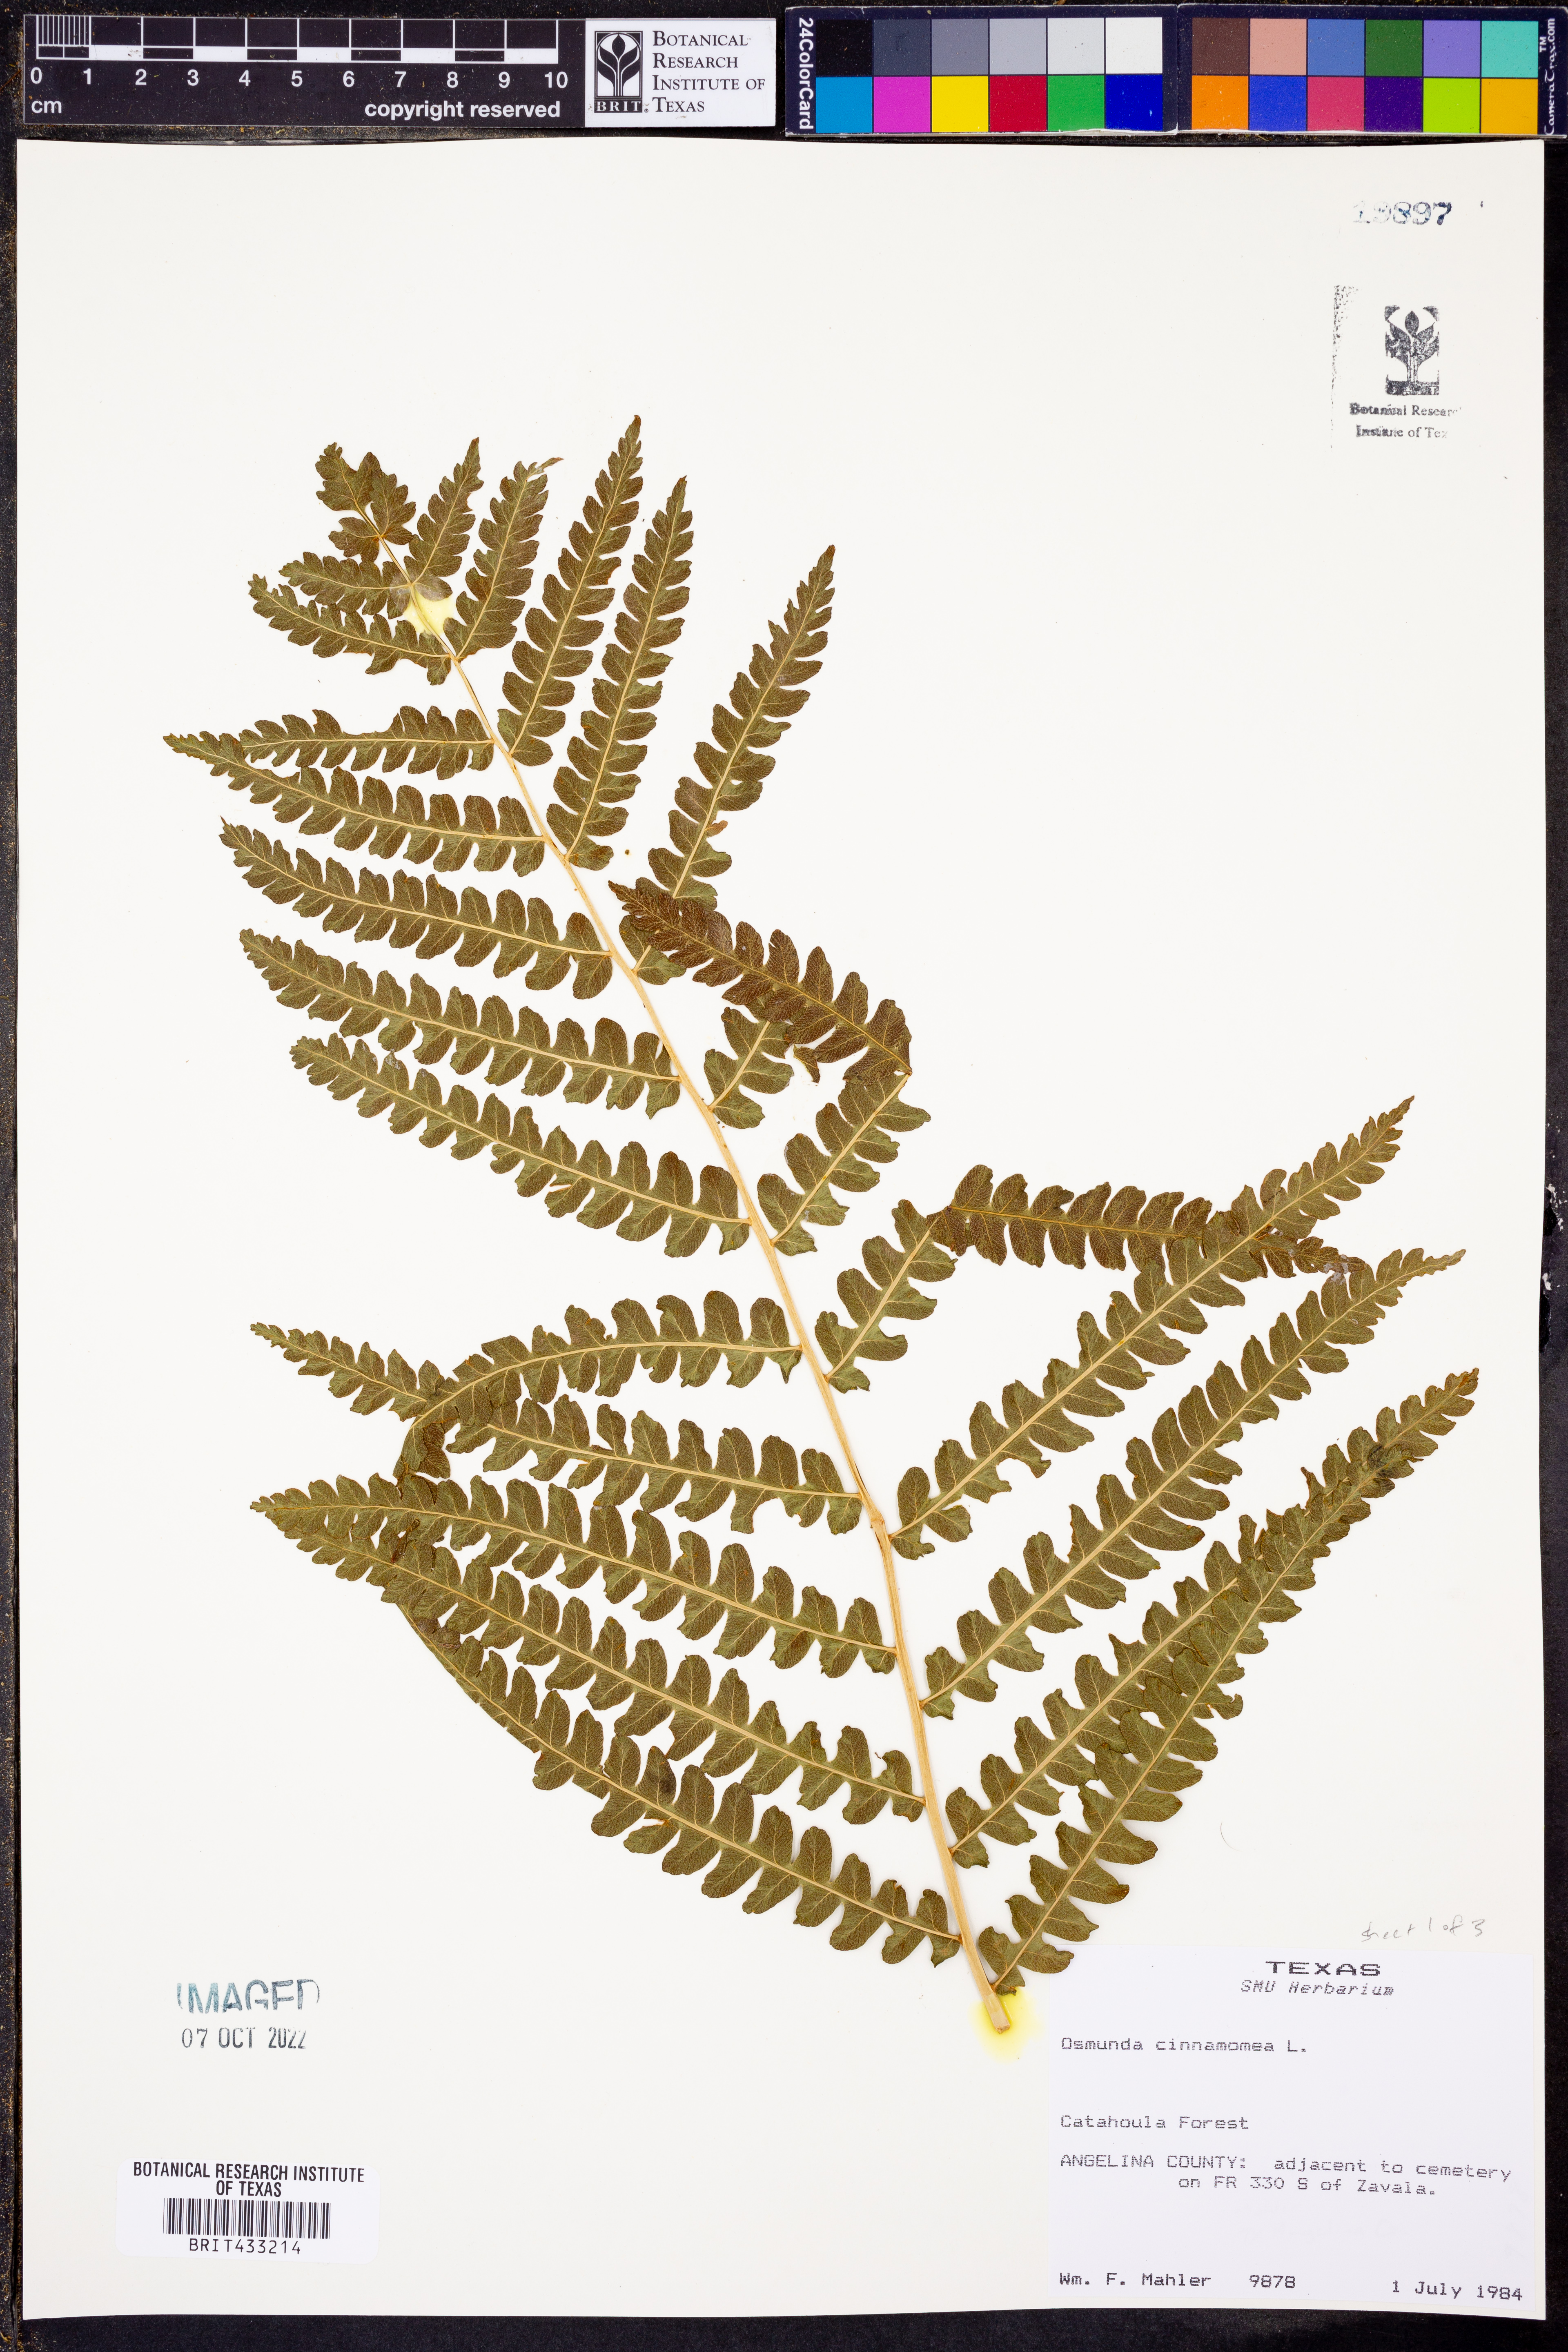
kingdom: Plantae
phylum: Tracheophyta
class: Polypodiopsida
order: Osmundales
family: Osmundaceae
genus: Osmundastrum
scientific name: Osmundastrum cinnamomeum
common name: Cinnamon fern
